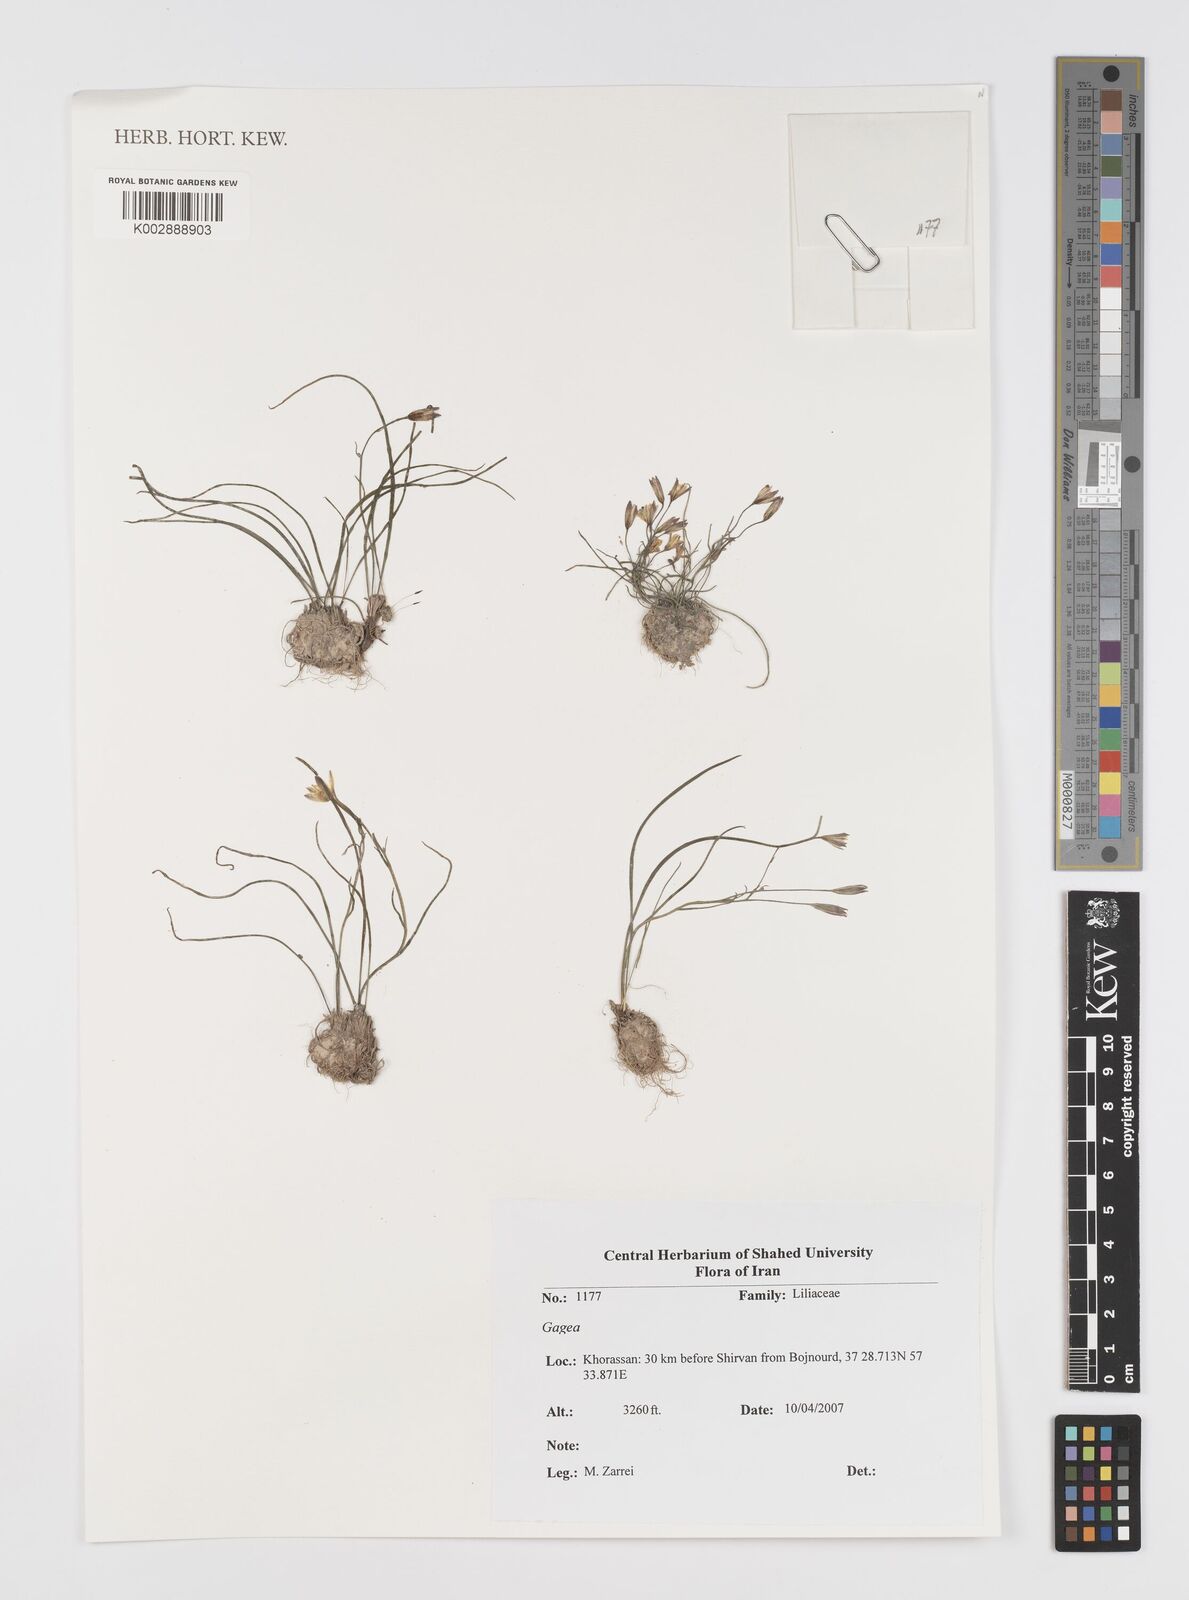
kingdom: Plantae
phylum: Tracheophyta
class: Liliopsida
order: Liliales
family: Liliaceae
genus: Gagea
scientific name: Gagea
